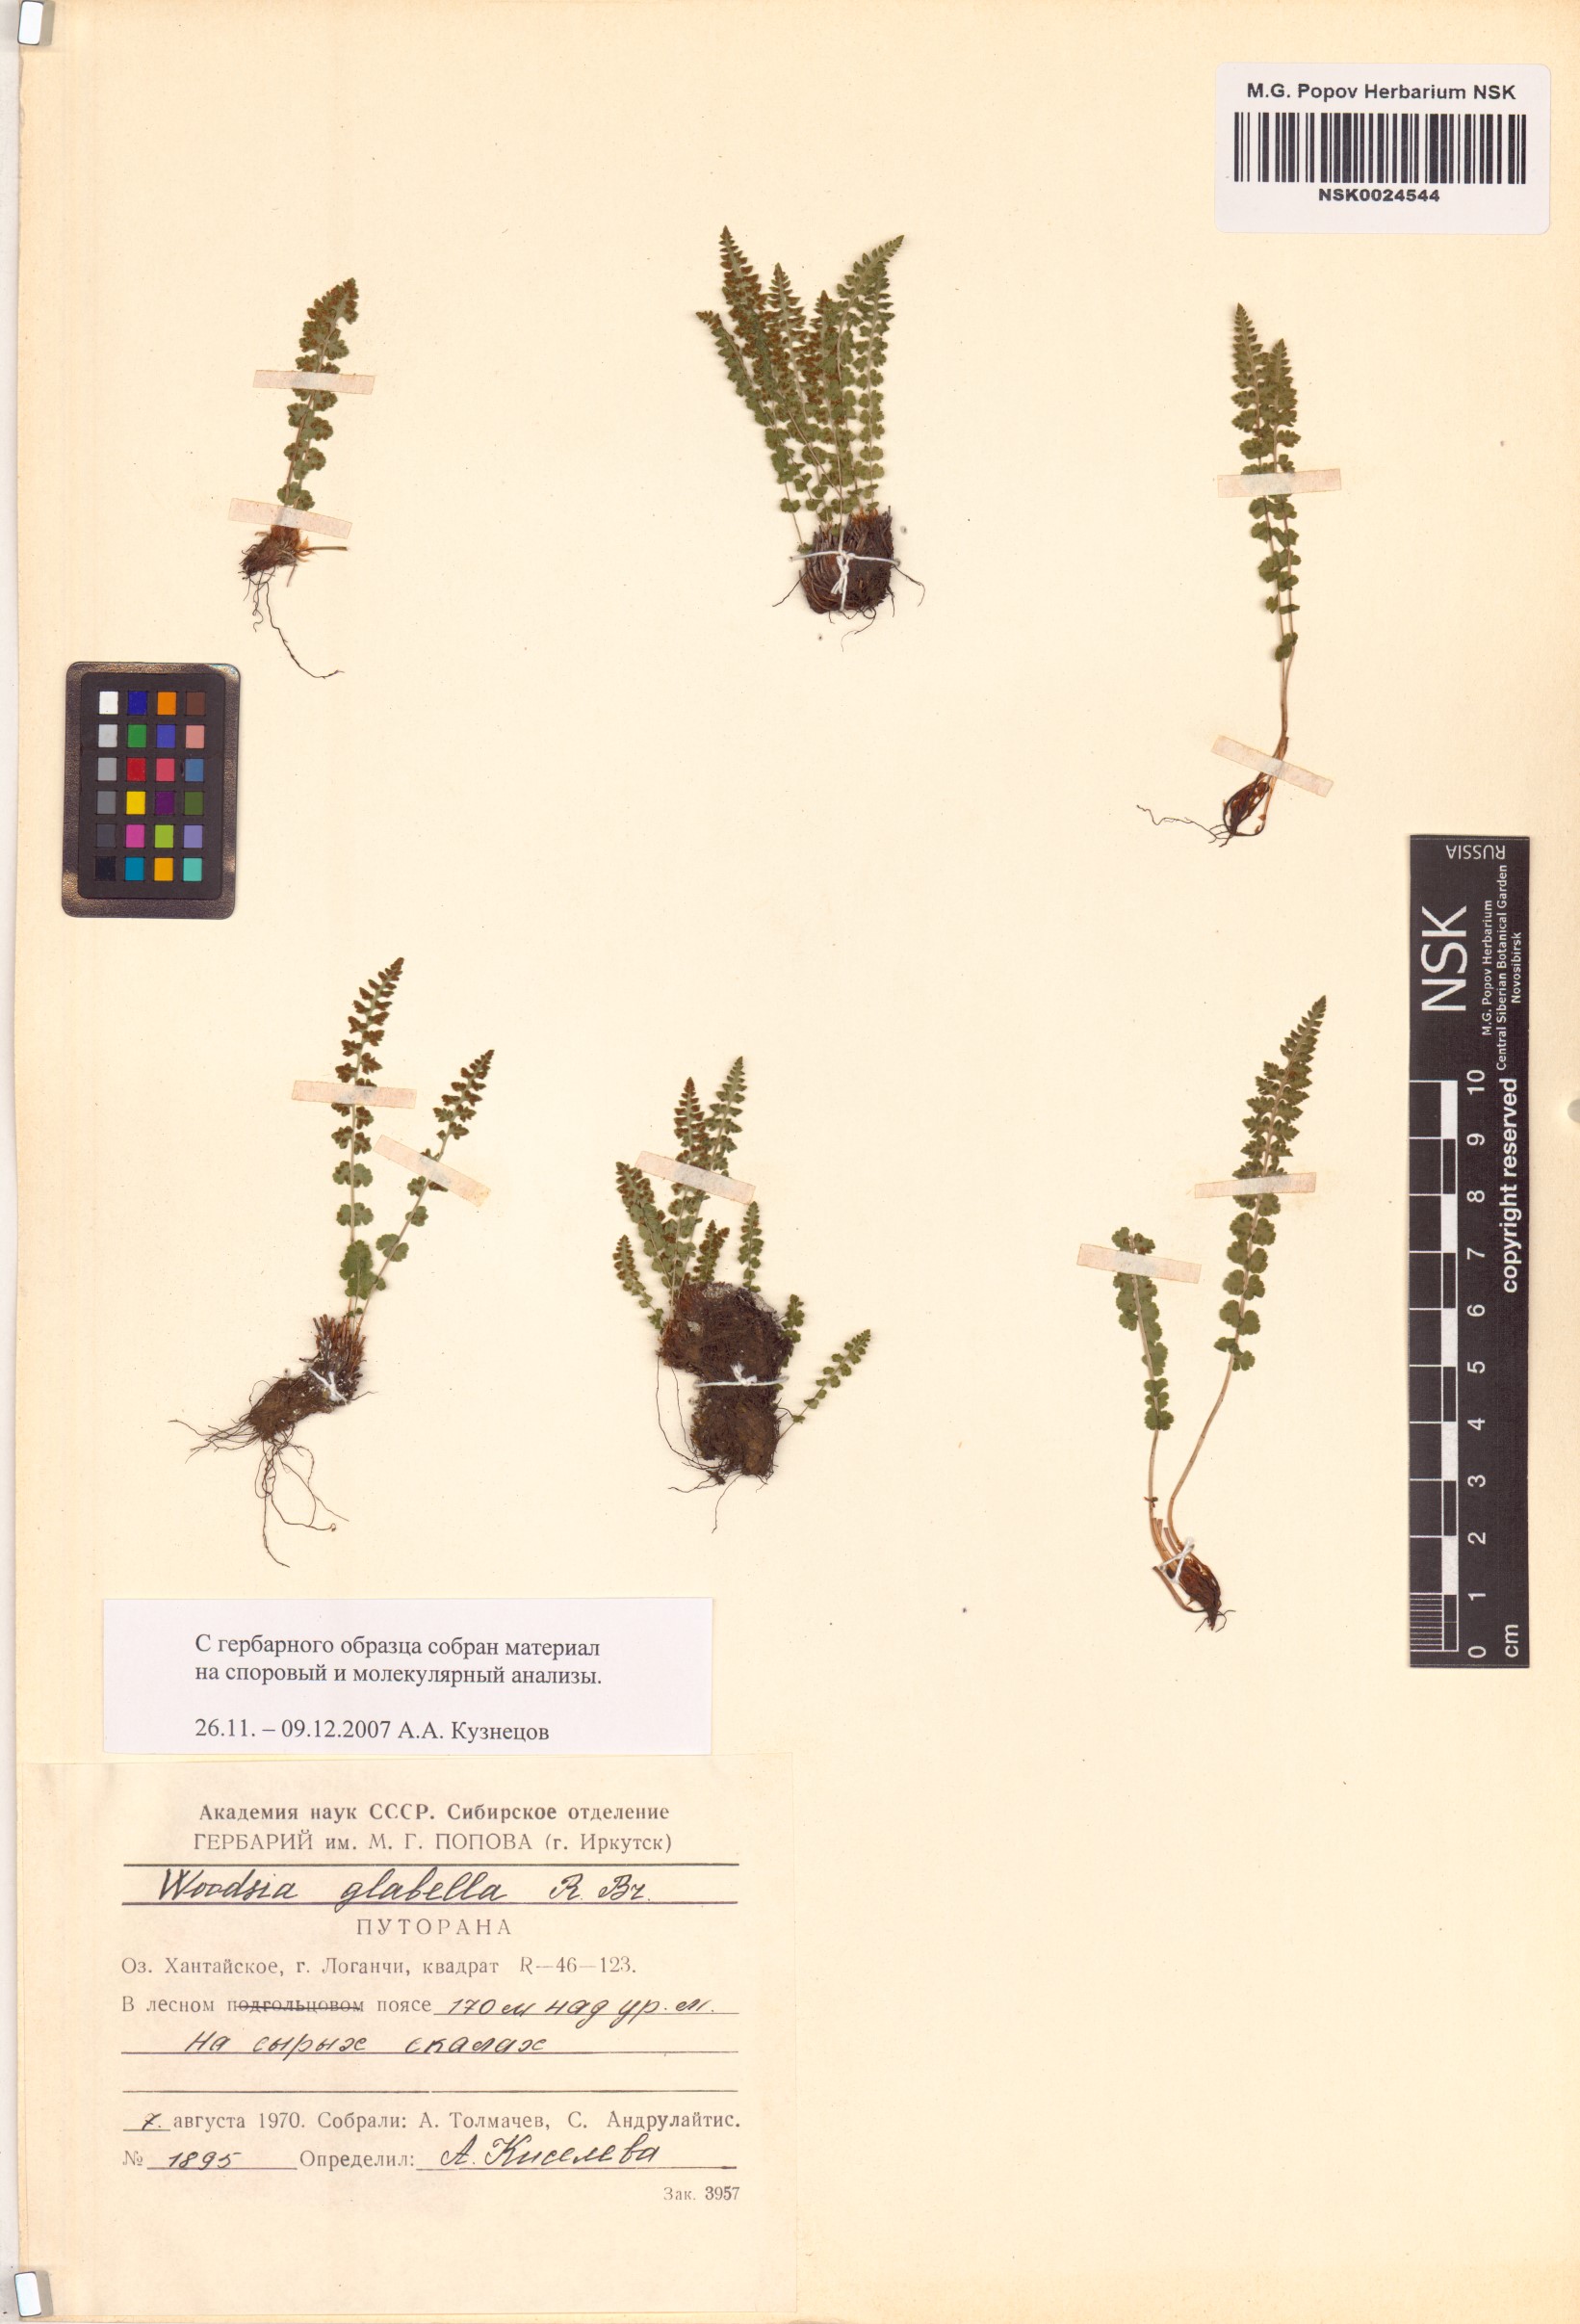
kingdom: Plantae
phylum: Tracheophyta
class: Polypodiopsida
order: Polypodiales
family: Woodsiaceae
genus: Woodsia
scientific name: Woodsia glabella
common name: Smooth woodsia
